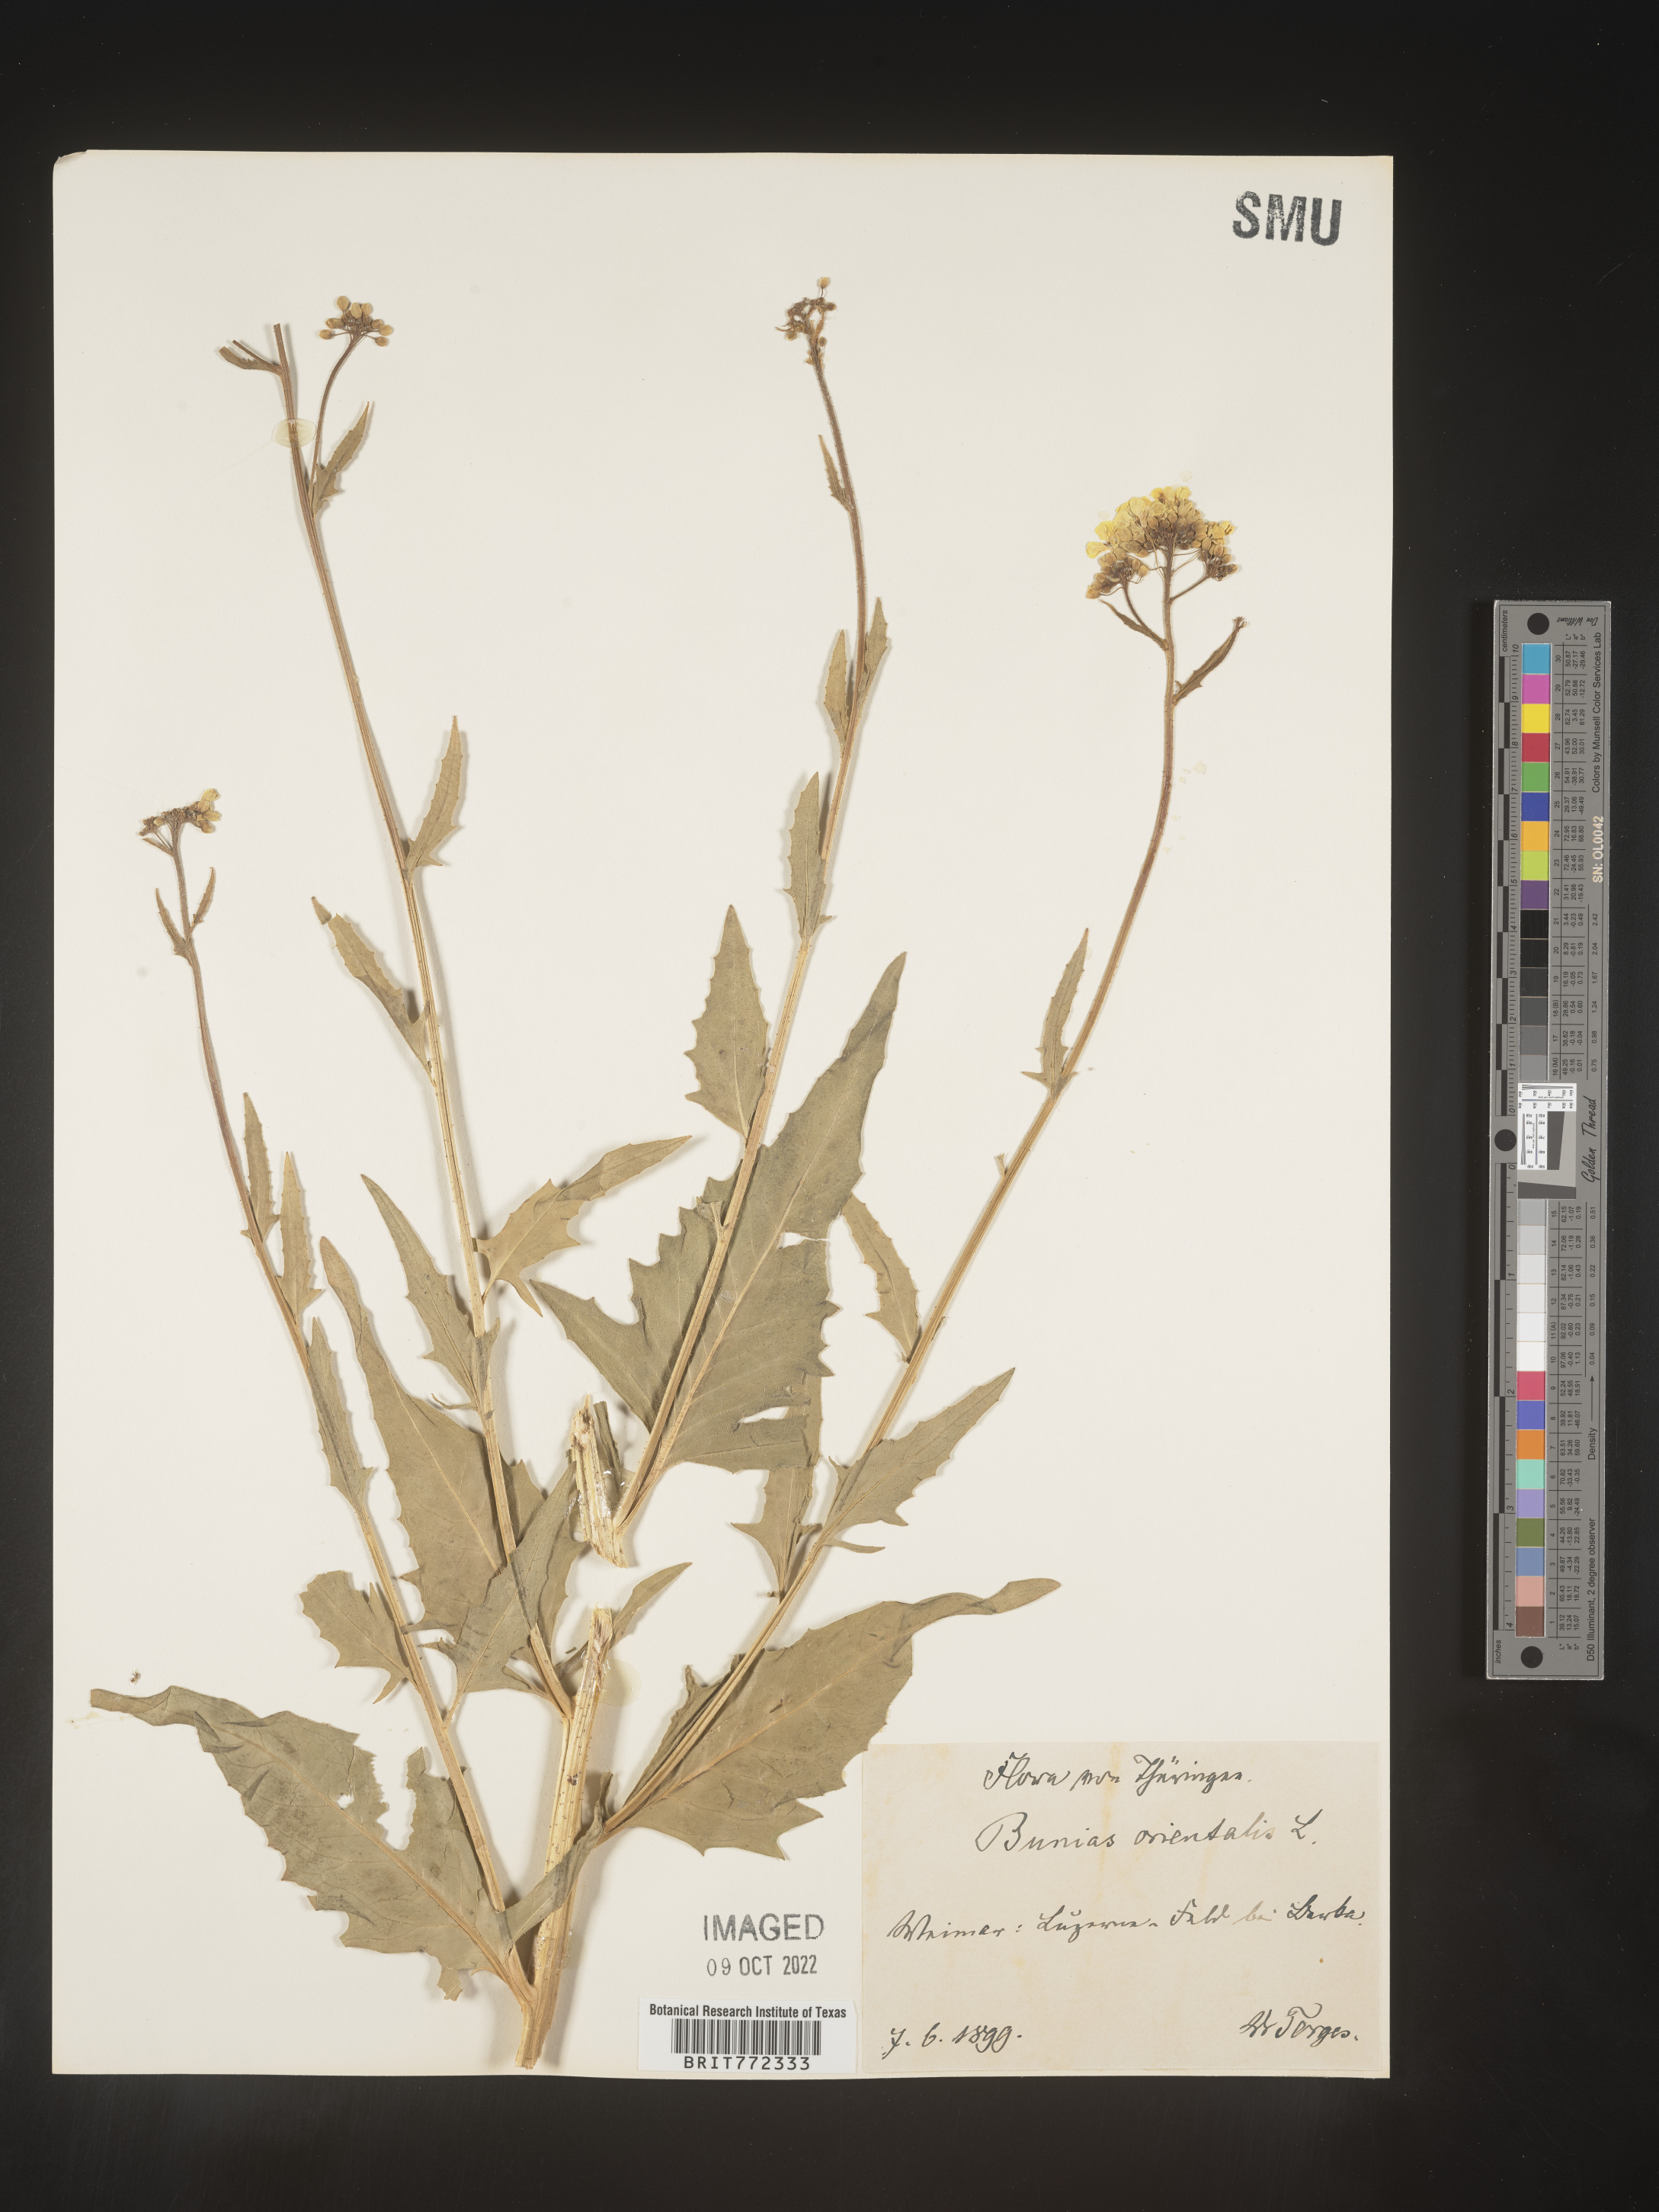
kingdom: Plantae
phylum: Tracheophyta
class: Magnoliopsida
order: Brassicales
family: Brassicaceae
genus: Bunias
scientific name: Bunias
